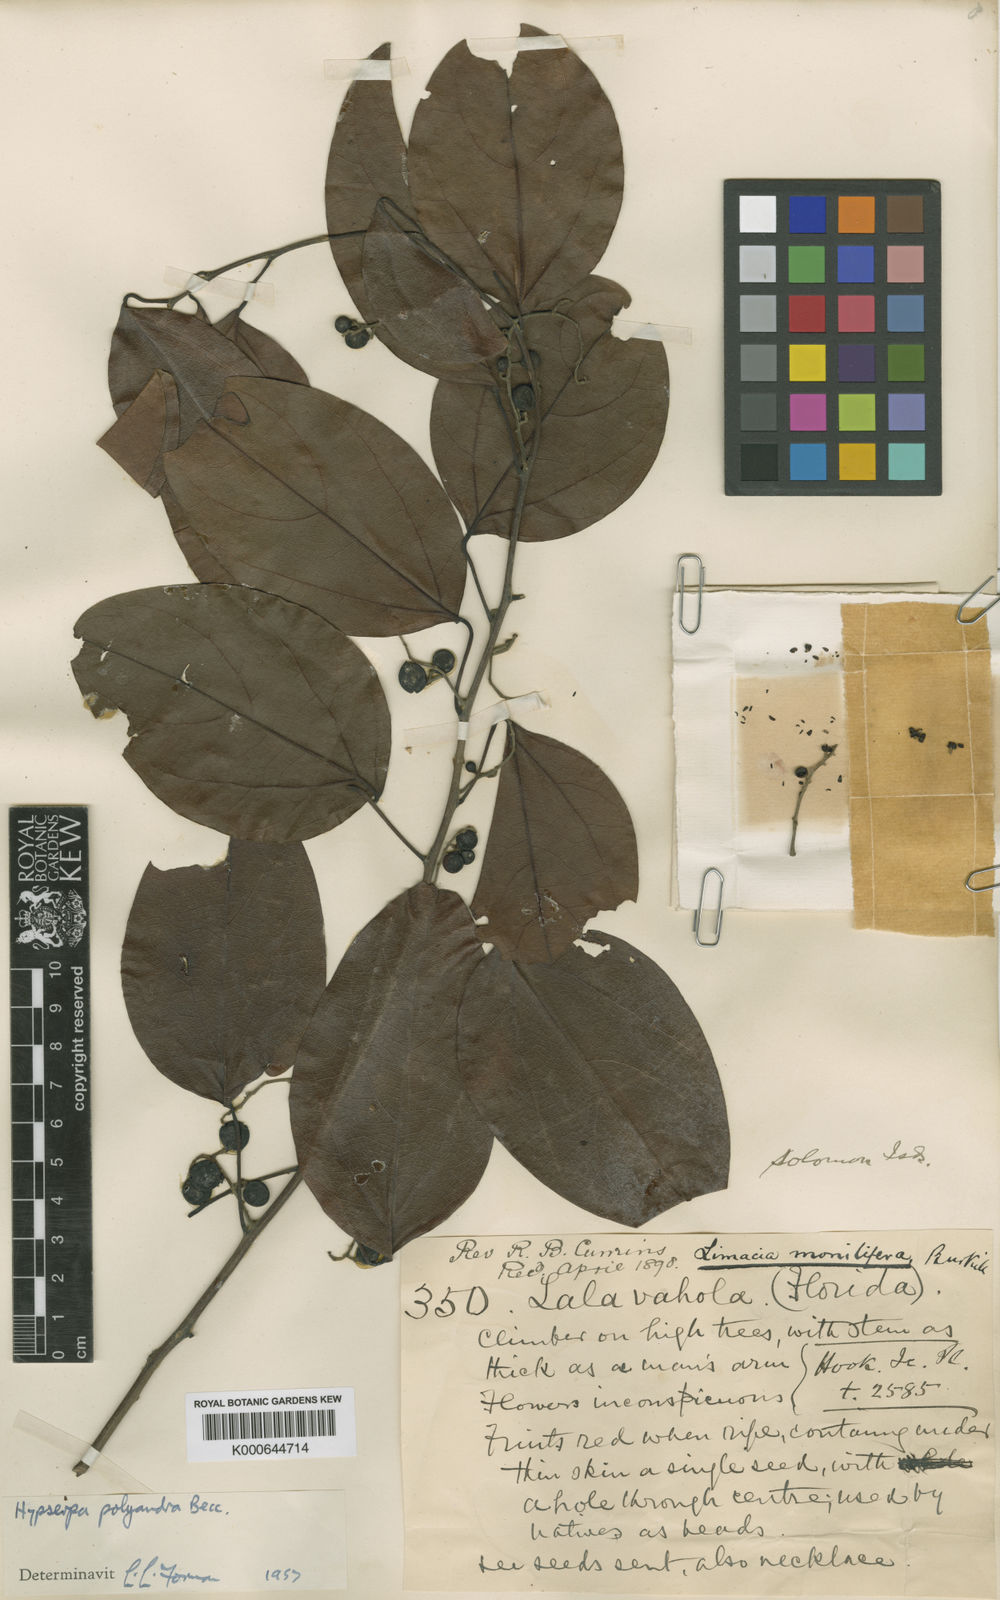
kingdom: Plantae
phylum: Tracheophyta
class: Magnoliopsida
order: Ranunculales
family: Menispermaceae
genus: Hypserpa
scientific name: Hypserpa polyandra
